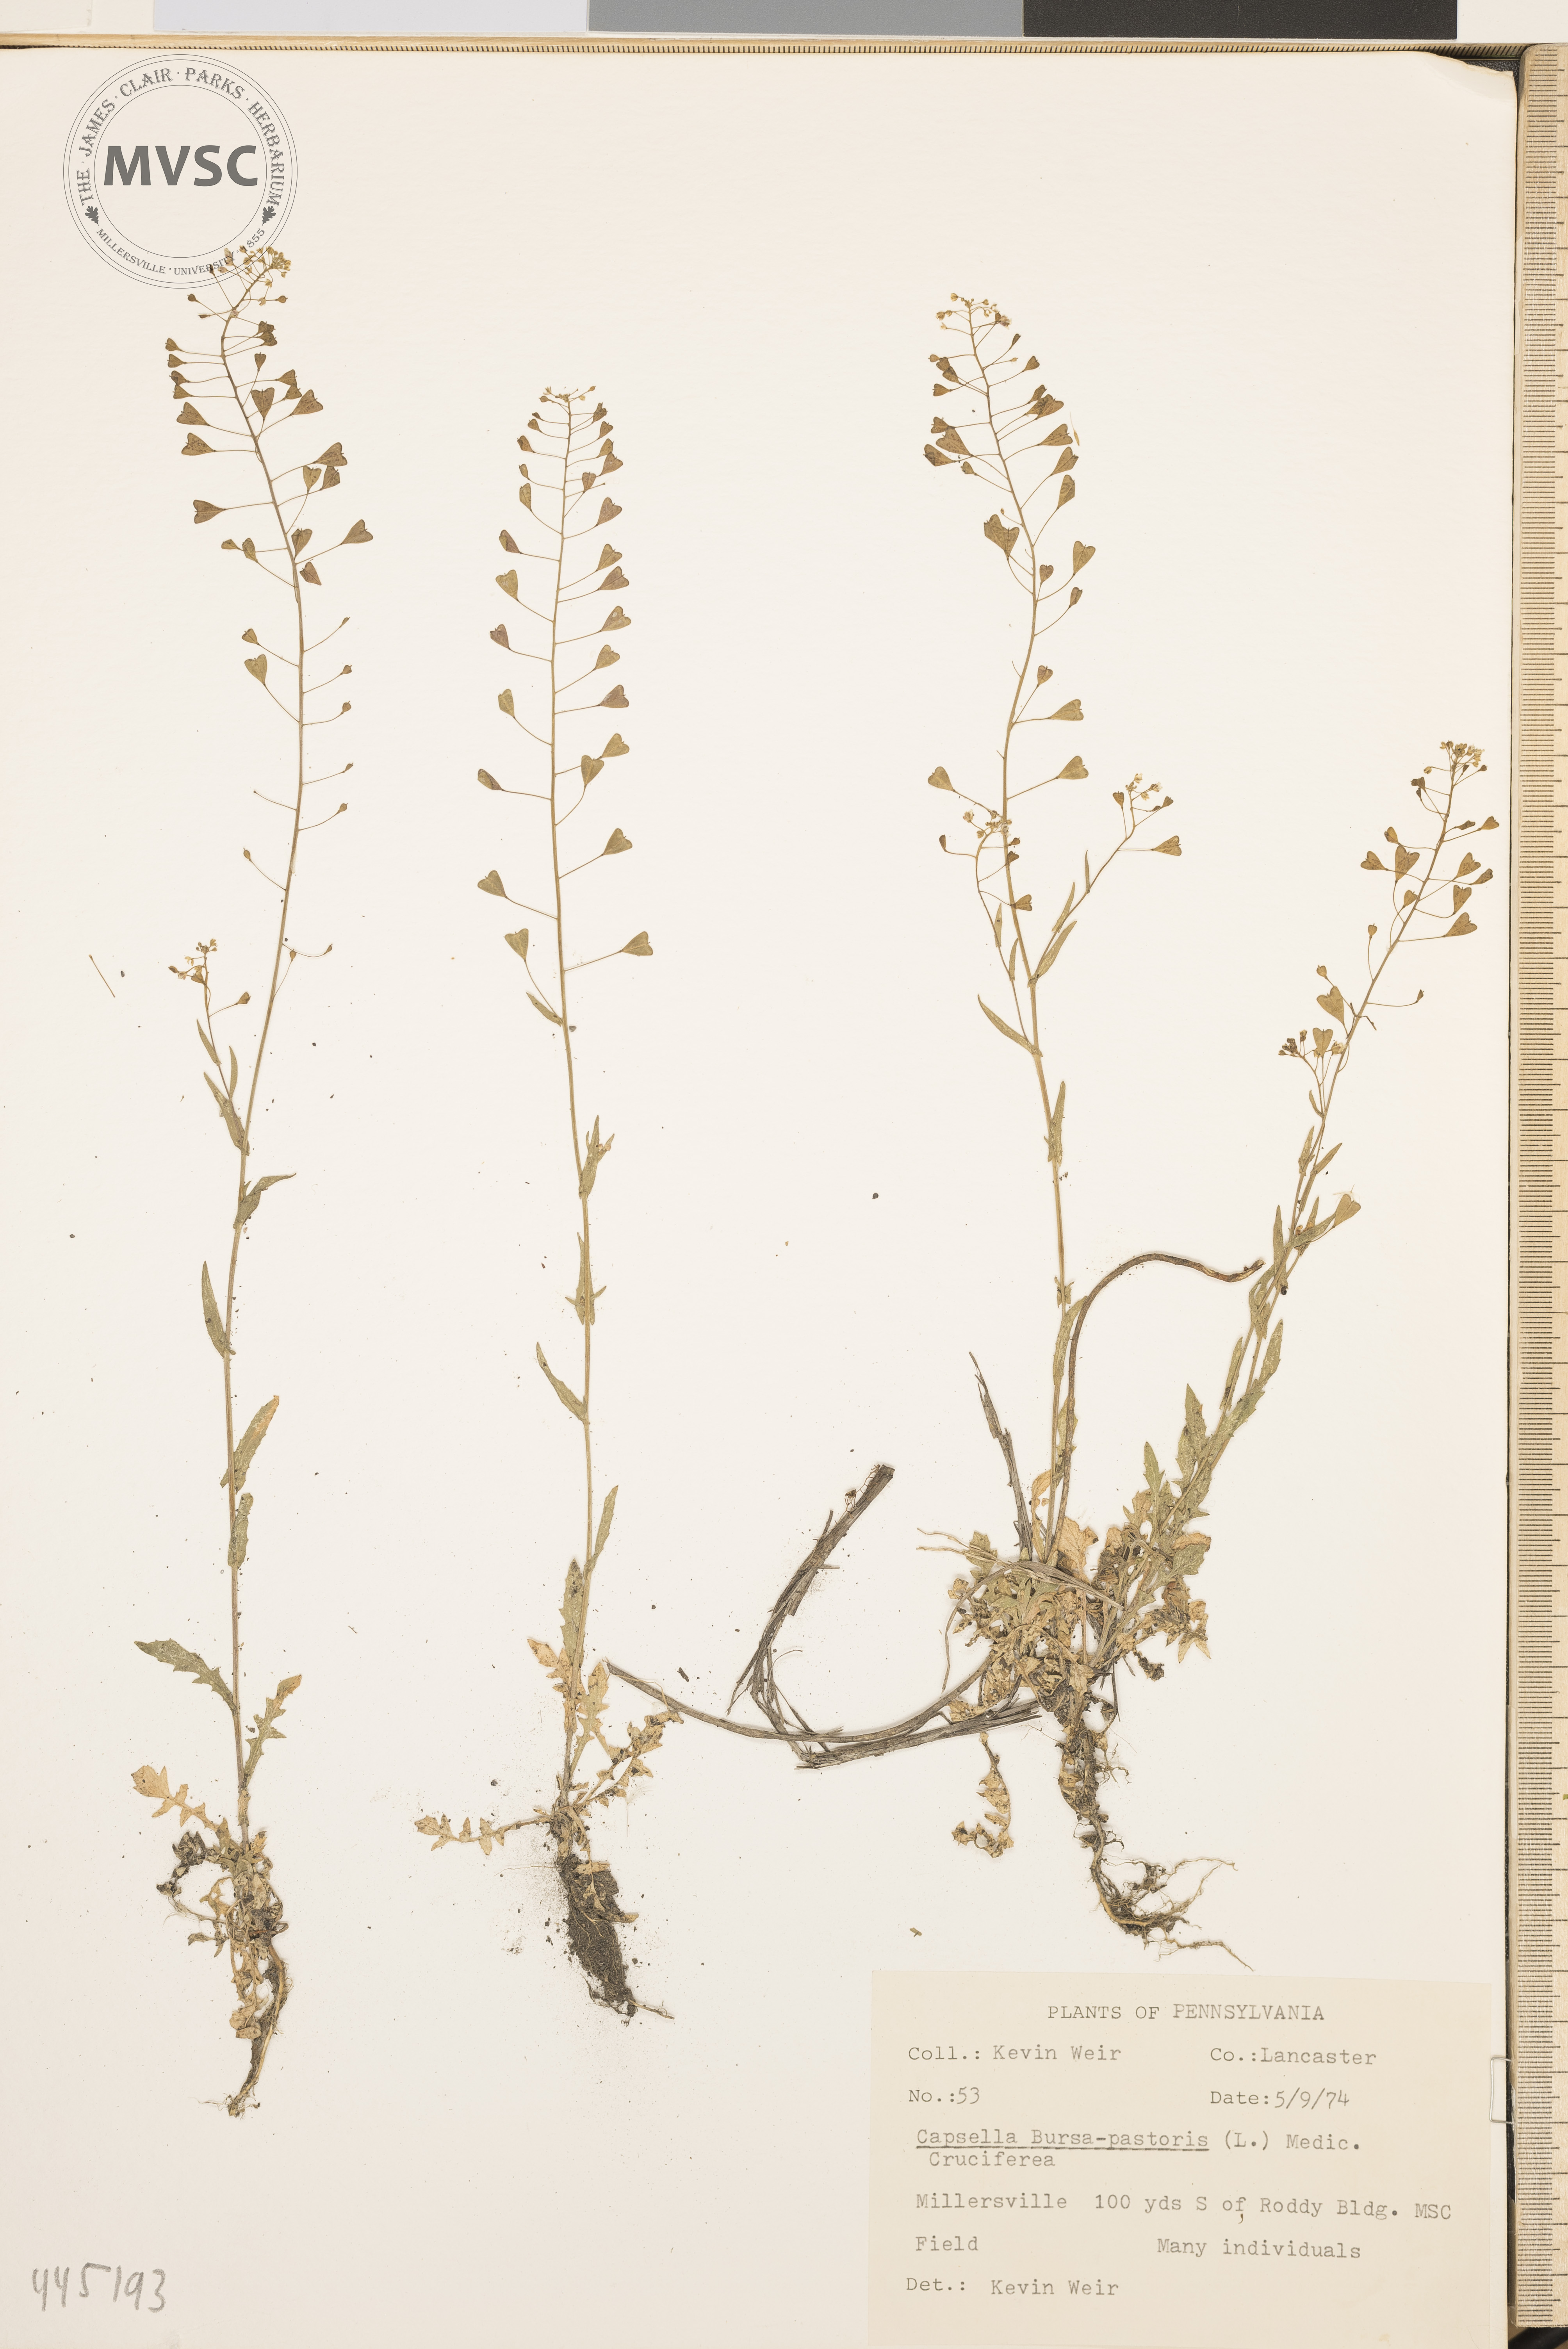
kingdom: Plantae
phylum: Tracheophyta
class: Magnoliopsida
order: Brassicales
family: Brassicaceae
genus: Capsella
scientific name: Capsella bursa-pastoris
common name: Shepherd's purse
